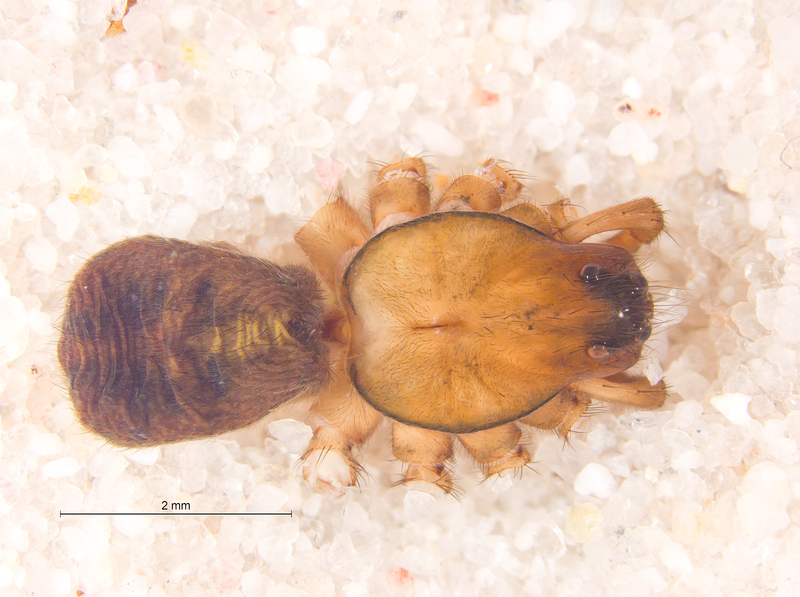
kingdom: Animalia
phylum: Arthropoda
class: Arachnida
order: Araneae
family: Lycosidae
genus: Piratula
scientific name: Piratula uliginosa
